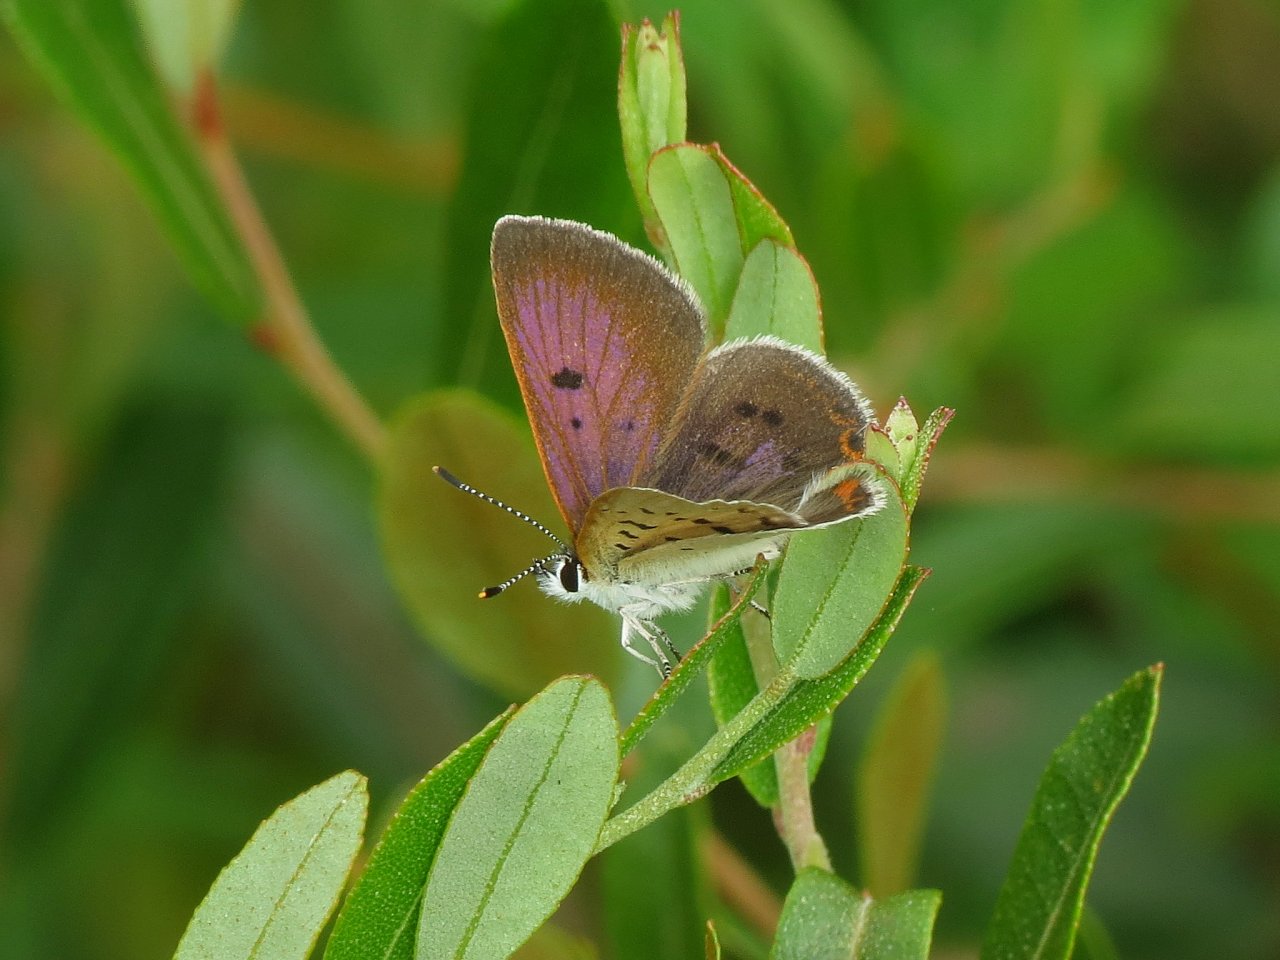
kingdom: Animalia
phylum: Arthropoda
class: Insecta
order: Lepidoptera
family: Sesiidae
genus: Sesia
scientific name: Sesia Lycaena epixanthe
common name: Bog Copper
